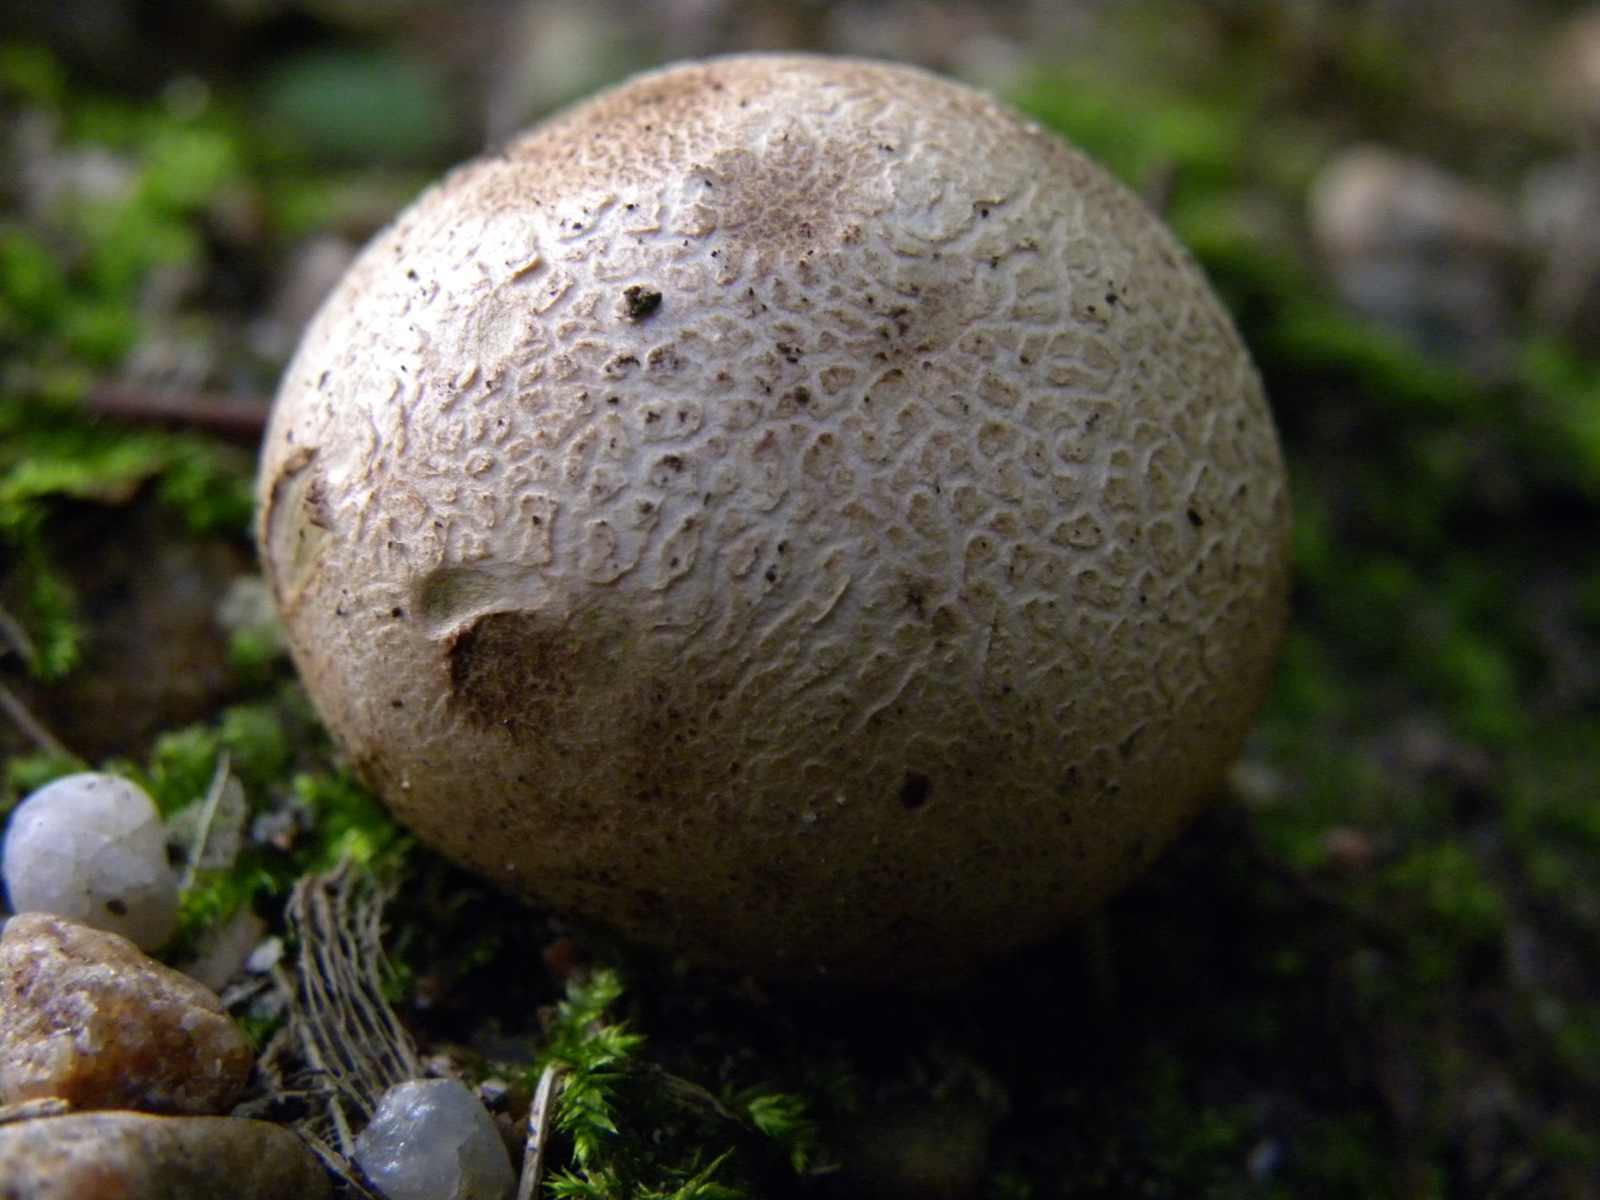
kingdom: Fungi
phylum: Basidiomycota
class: Agaricomycetes
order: Boletales
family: Sclerodermataceae
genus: Scleroderma
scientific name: Scleroderma citrinum
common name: almindelig bruskbold
